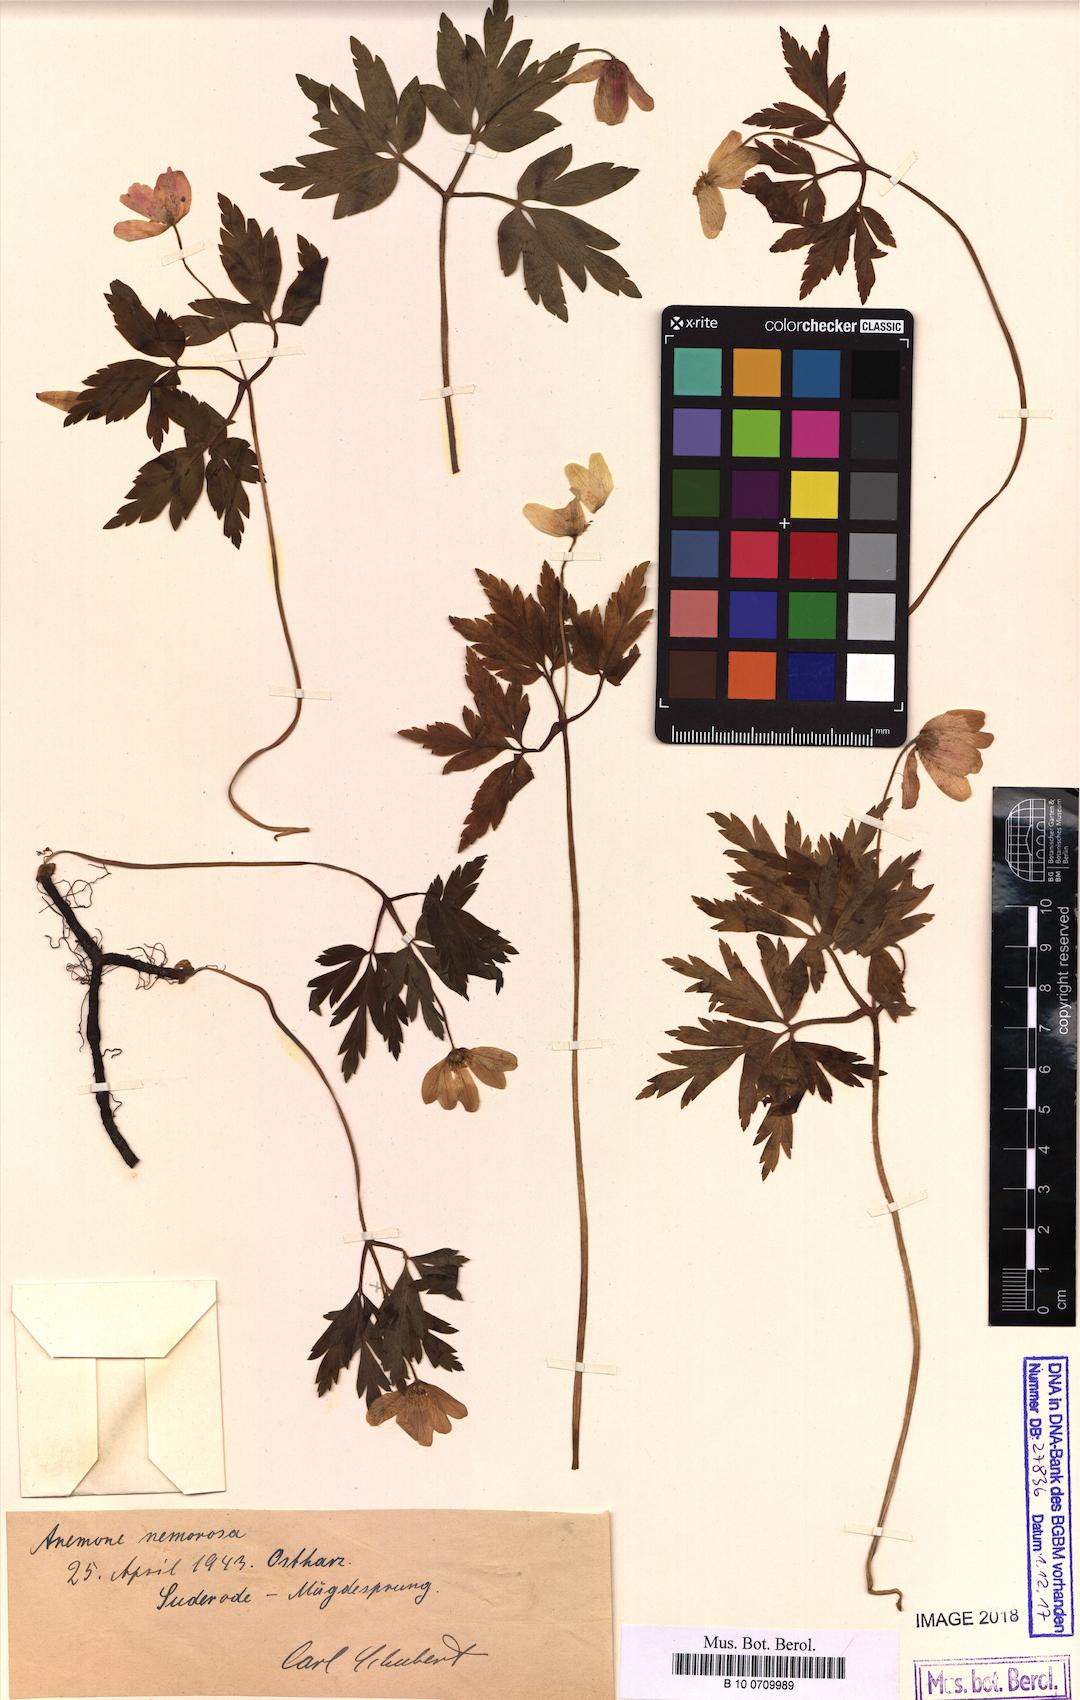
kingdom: Plantae
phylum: Tracheophyta
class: Magnoliopsida
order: Ranunculales
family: Ranunculaceae
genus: Anemone
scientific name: Anemone nemorosa
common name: Wood anemone
